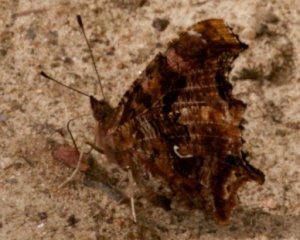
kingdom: Animalia
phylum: Arthropoda
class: Insecta
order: Lepidoptera
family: Nymphalidae
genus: Polygonia
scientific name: Polygonia comma
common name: Eastern Comma
